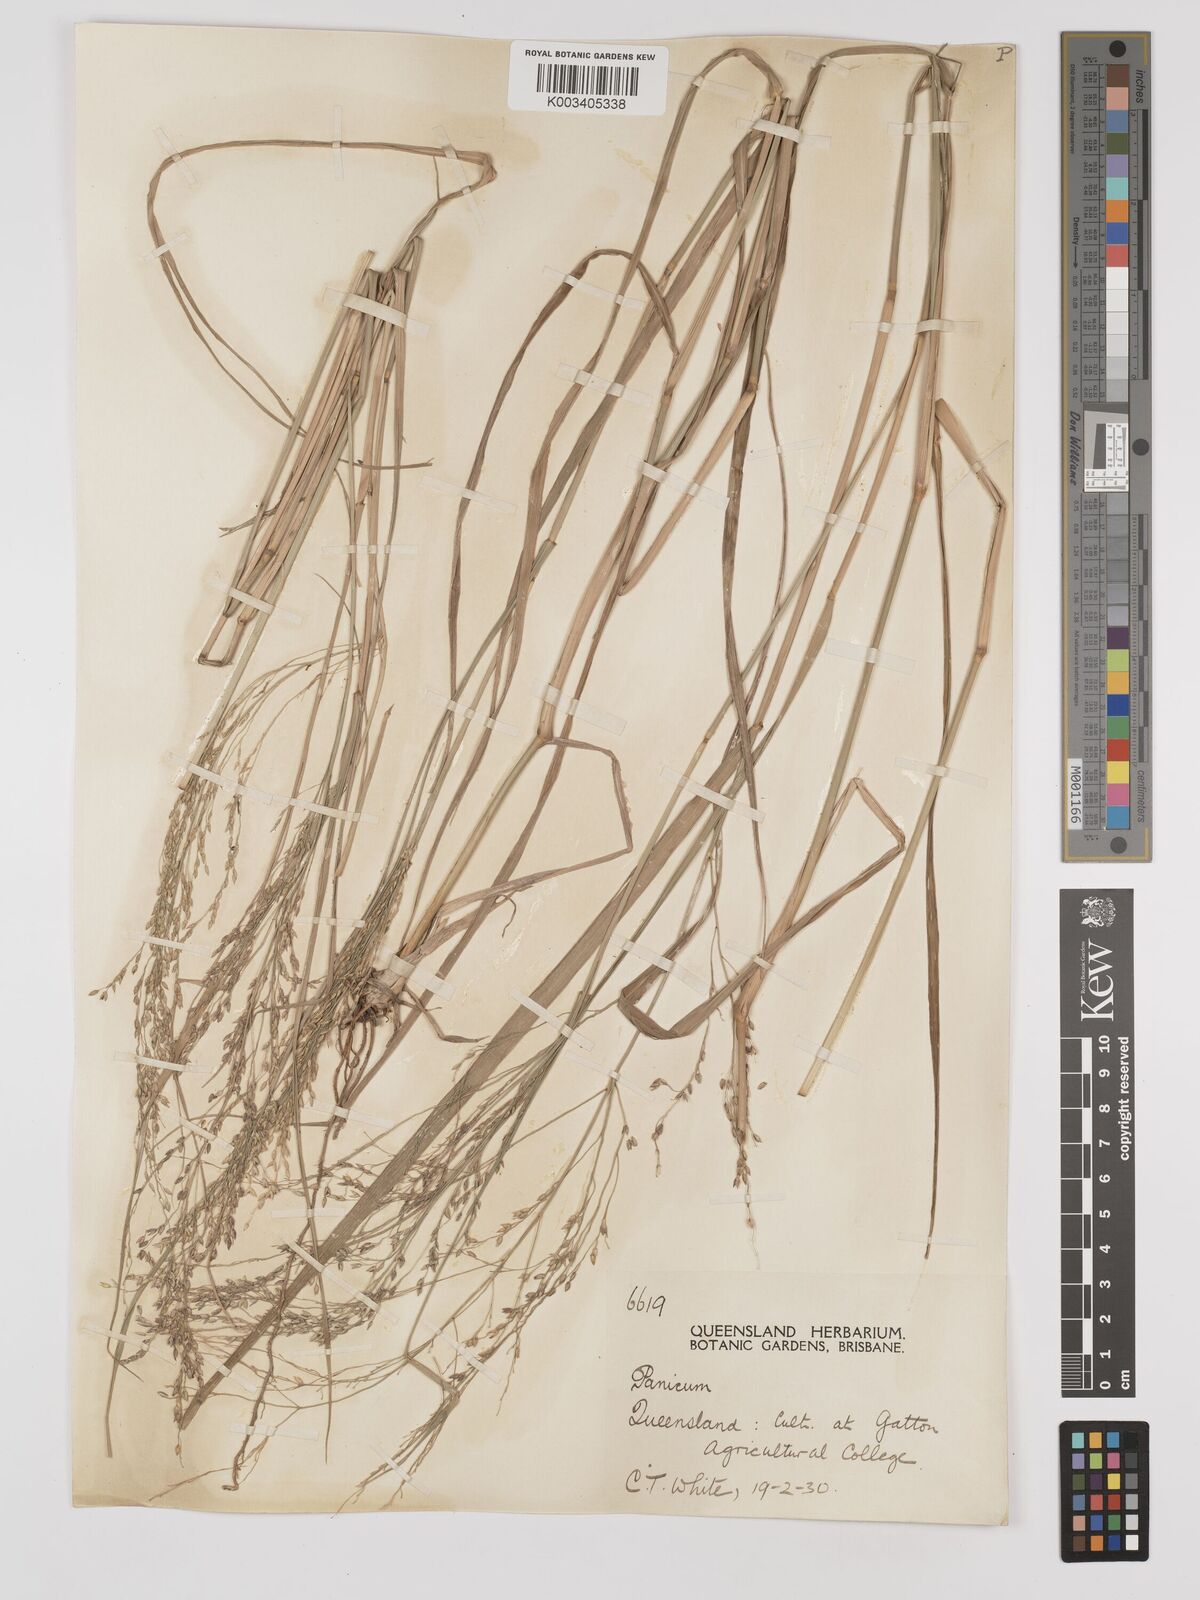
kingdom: Plantae
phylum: Tracheophyta
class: Liliopsida
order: Poales
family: Poaceae
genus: Panicum
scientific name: Panicum coloratum
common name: Kleingrass
